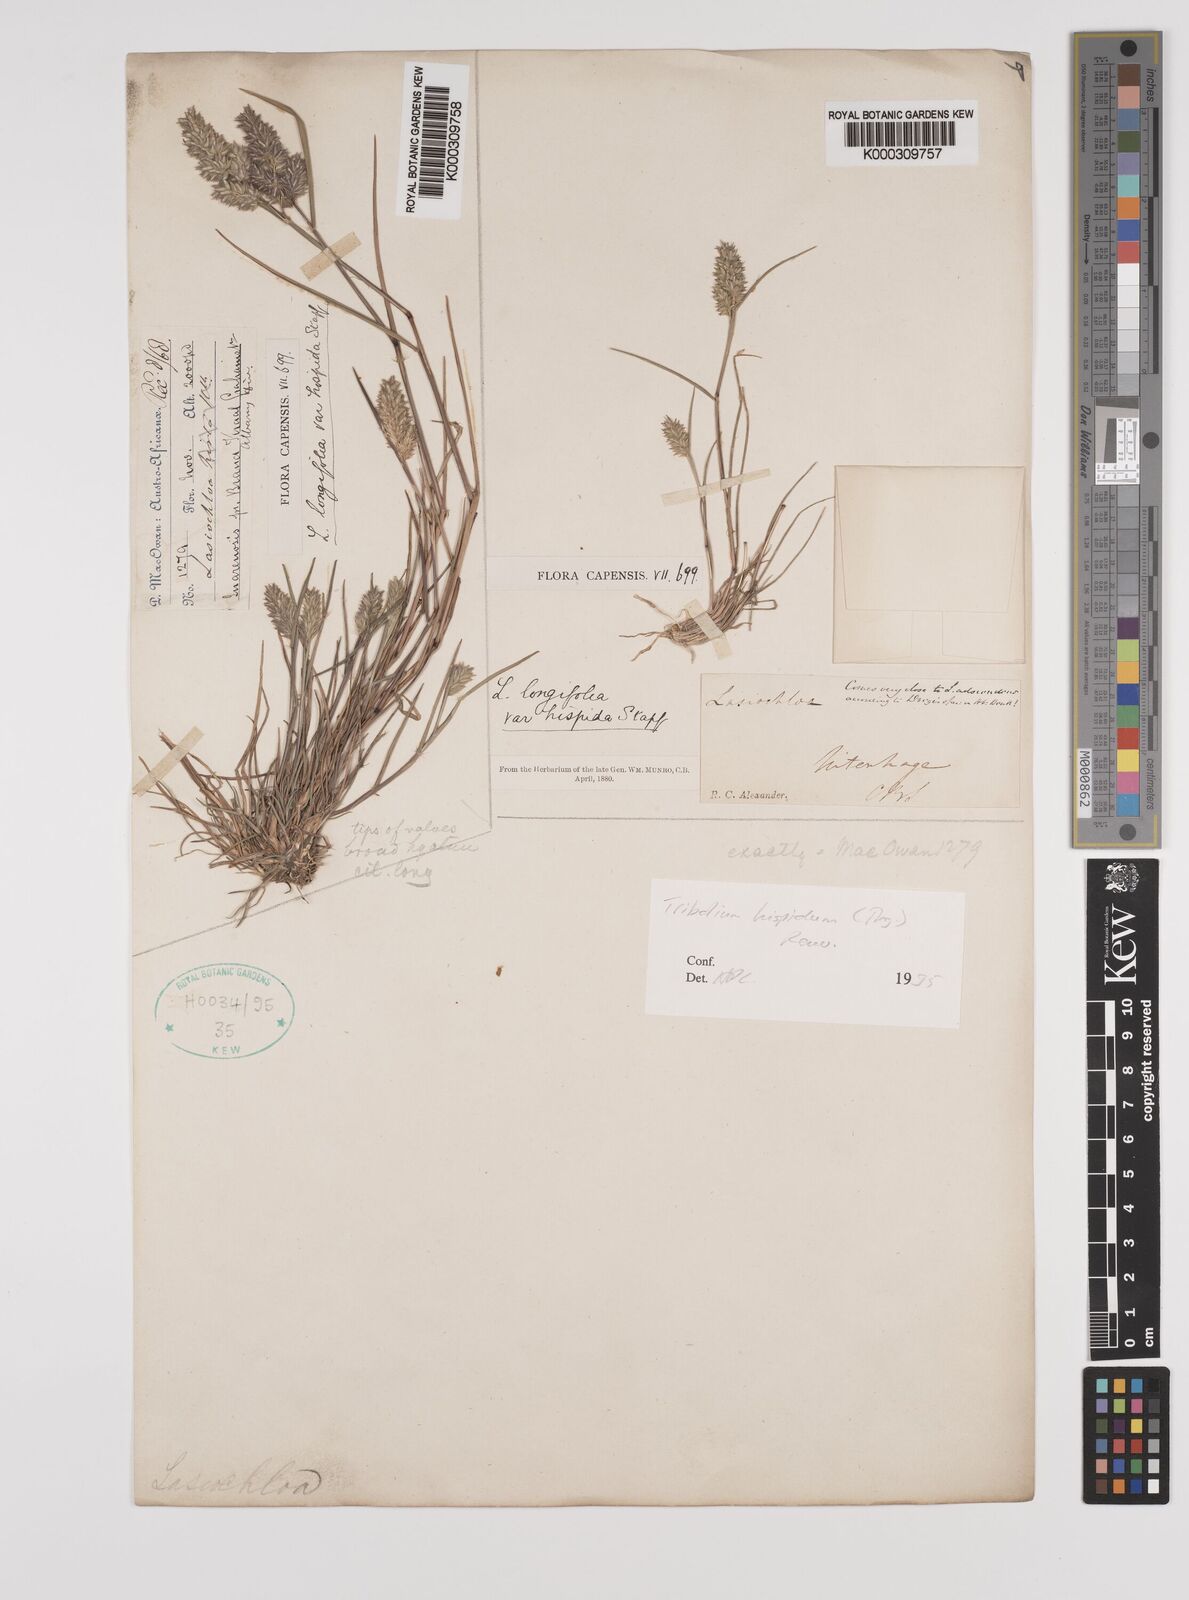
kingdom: Plantae
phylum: Tracheophyta
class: Liliopsida
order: Poales
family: Poaceae
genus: Tribolium
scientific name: Tribolium hispidum
